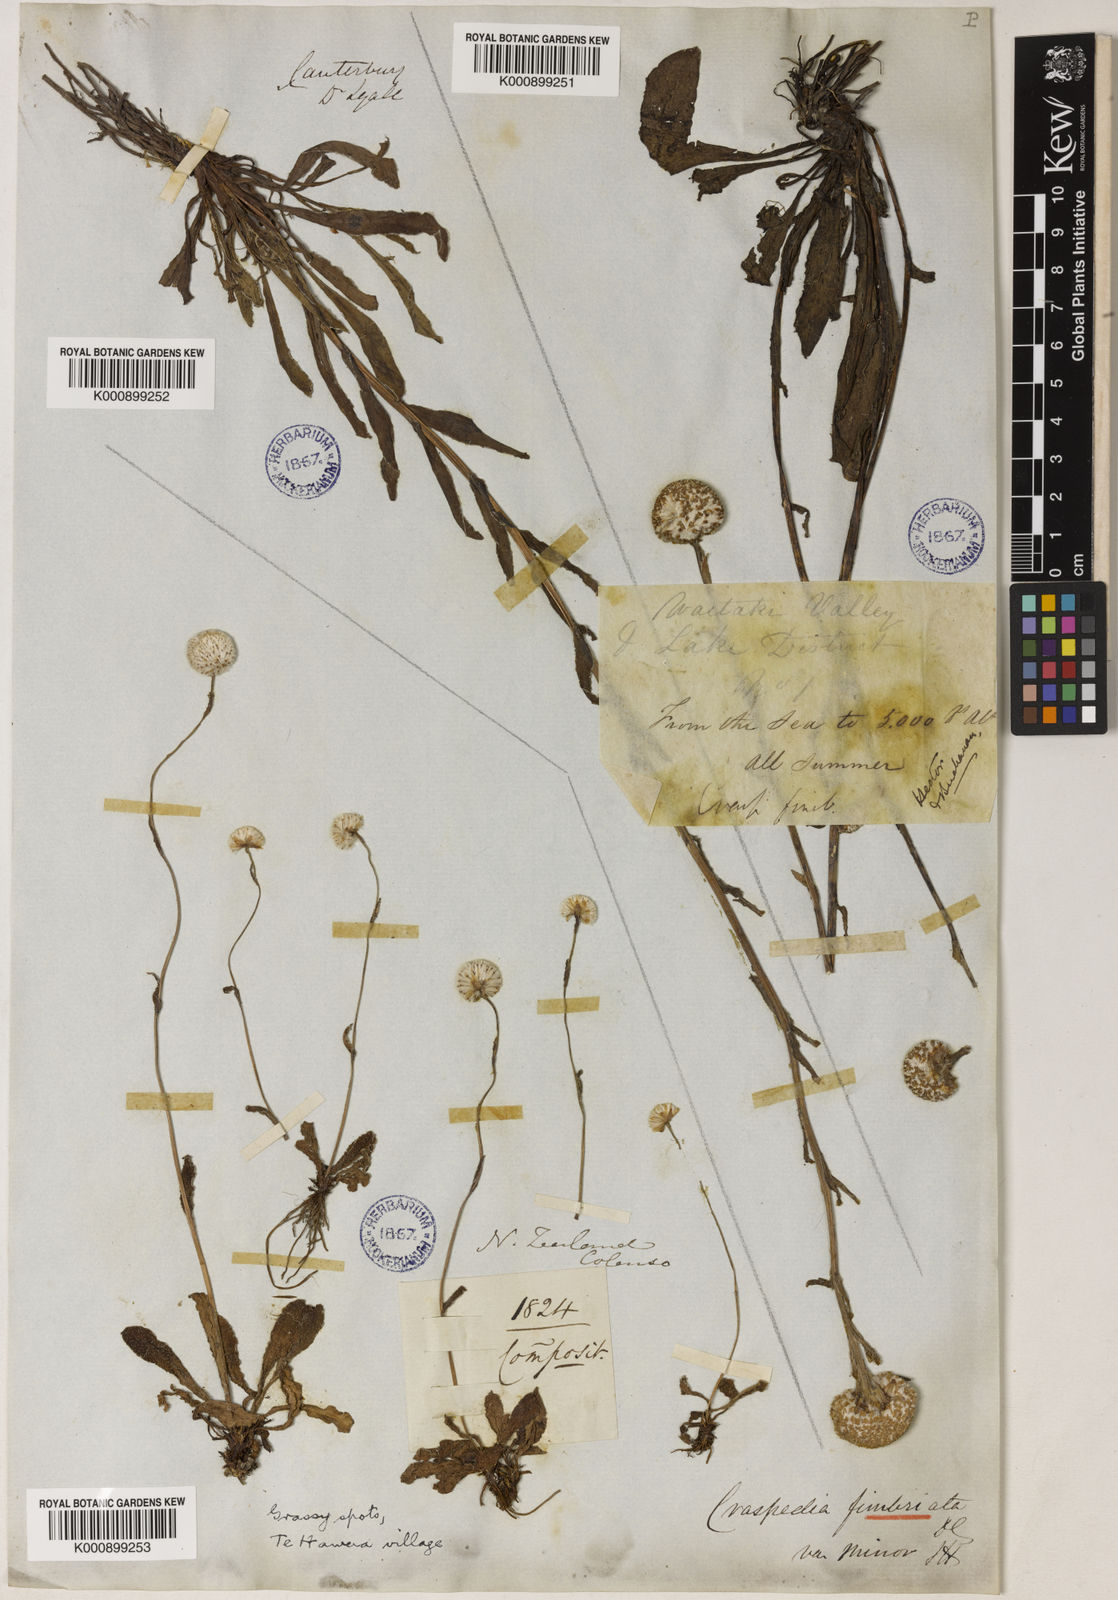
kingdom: Plantae
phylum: Tracheophyta
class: Magnoliopsida
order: Asterales
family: Asteraceae
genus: Craspedia
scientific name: Craspedia uniflora
